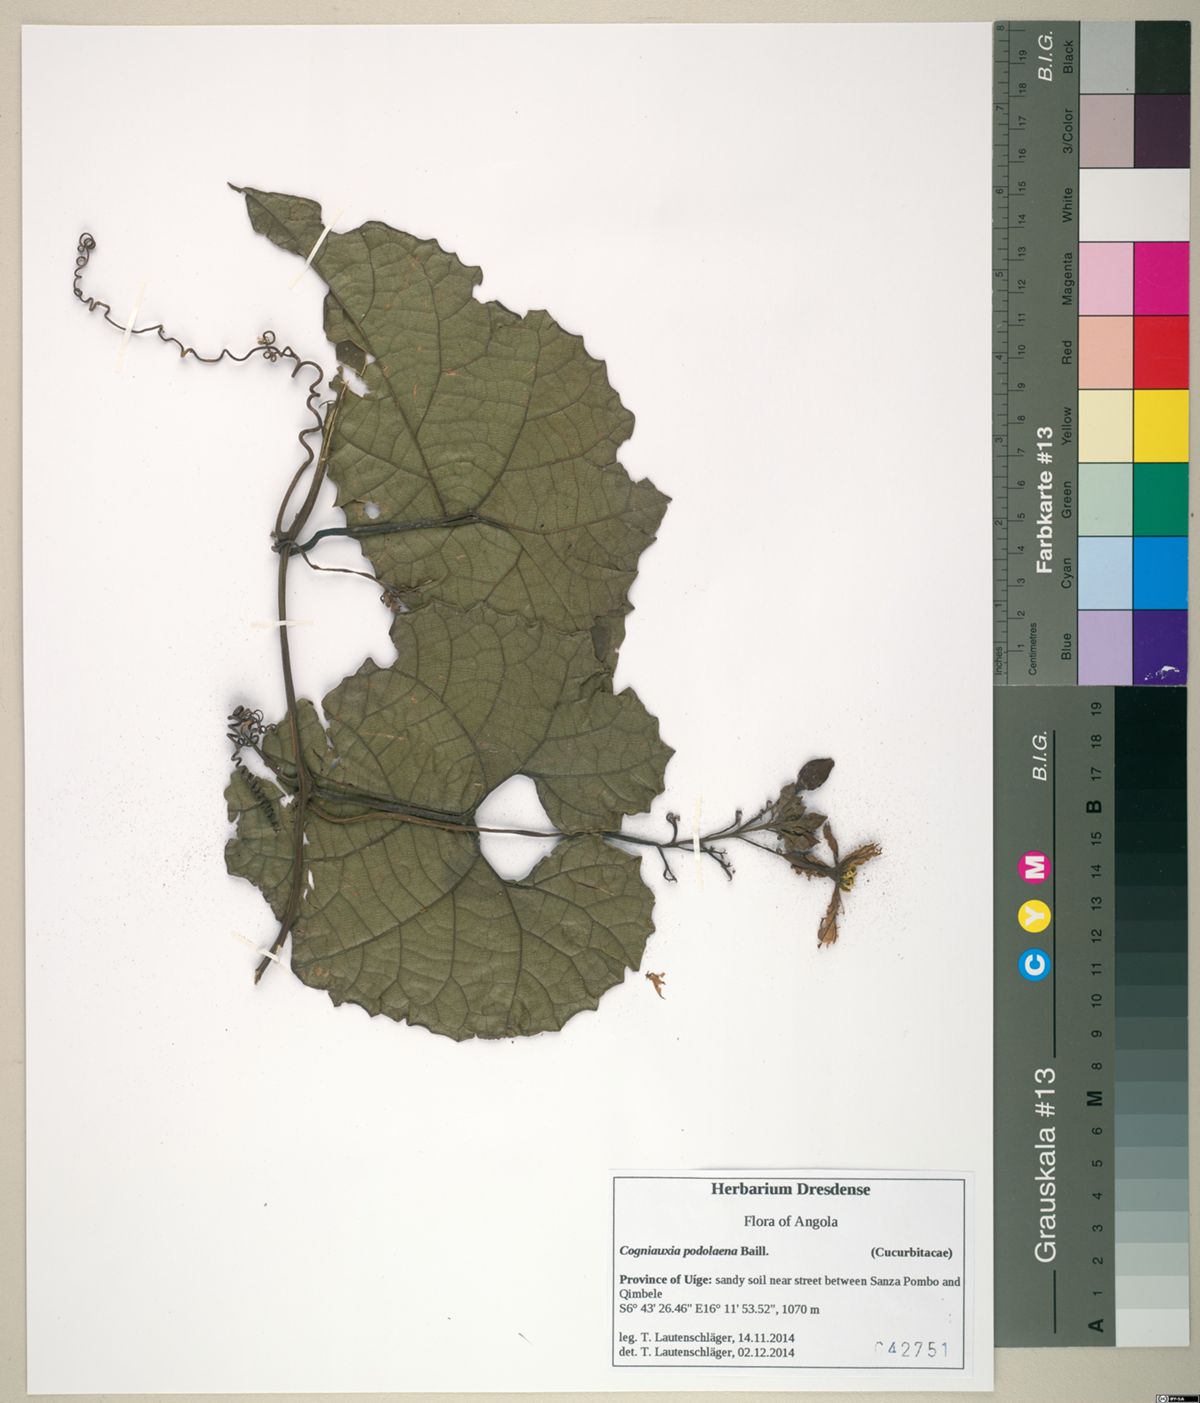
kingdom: Plantae
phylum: Tracheophyta
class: Magnoliopsida
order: Cucurbitales
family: Cucurbitaceae
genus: Cogniauxia
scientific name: Cogniauxia podolaena
